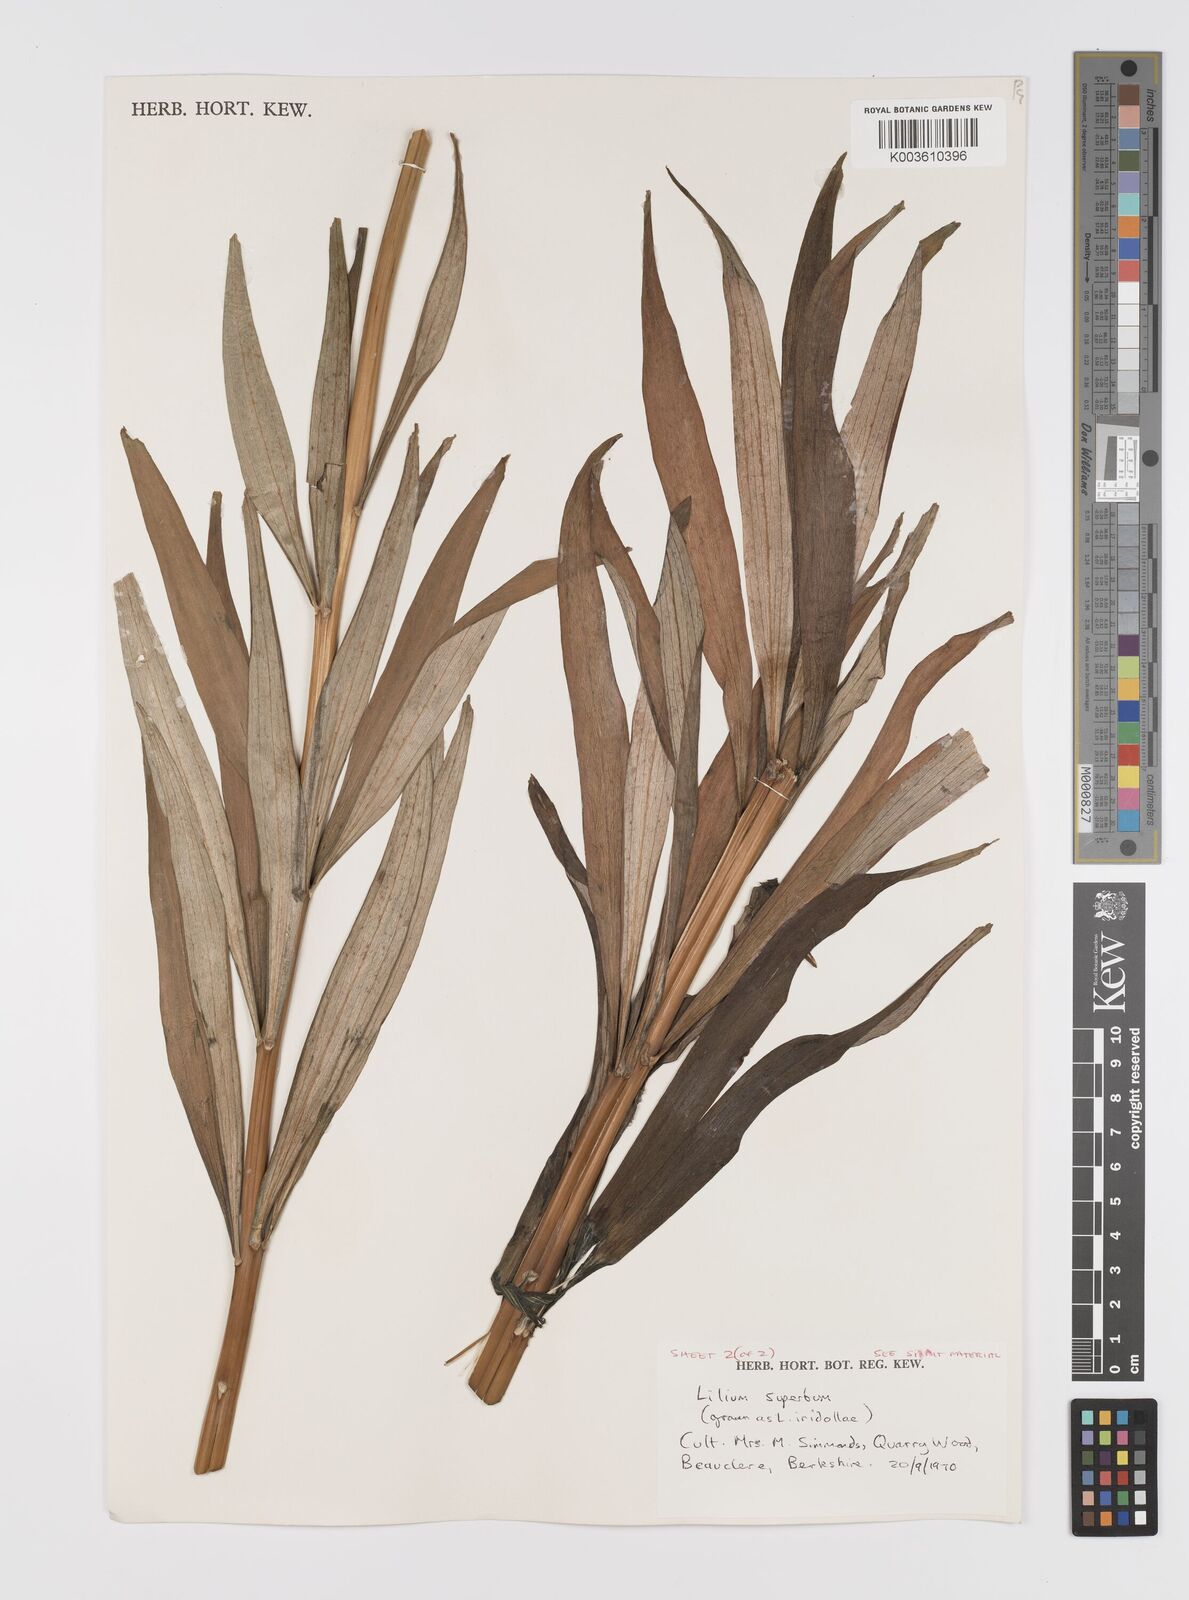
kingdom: Plantae
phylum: Tracheophyta
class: Liliopsida
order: Liliales
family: Liliaceae
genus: Lilium
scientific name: Lilium
